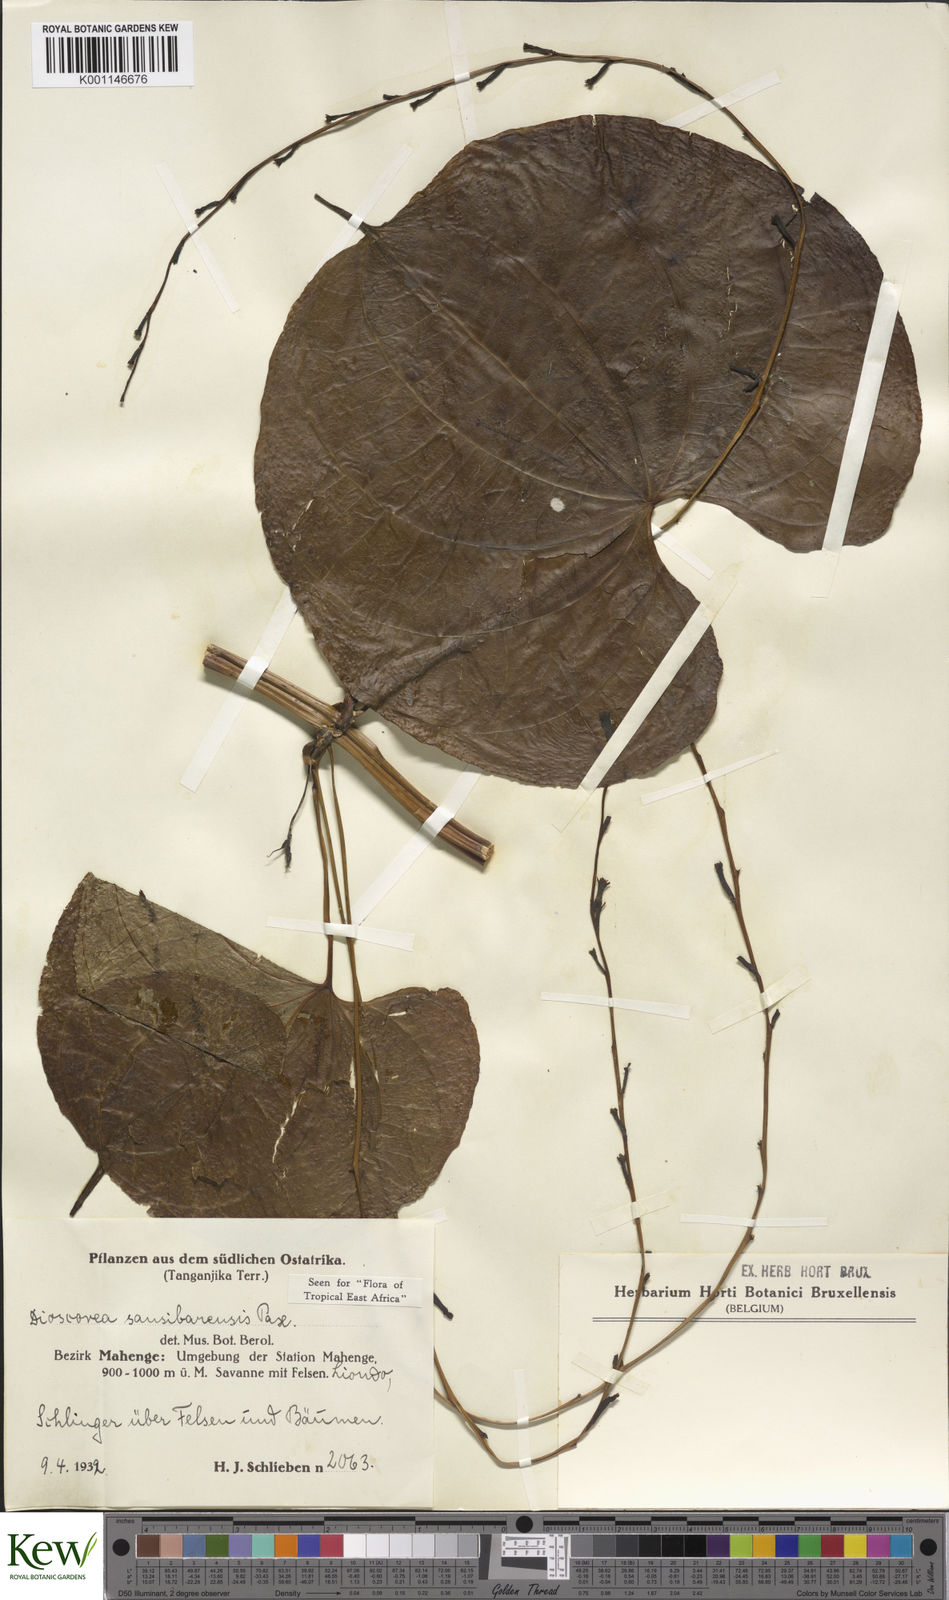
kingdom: Plantae
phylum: Tracheophyta
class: Liliopsida
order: Dioscoreales
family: Dioscoreaceae
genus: Dioscorea
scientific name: Dioscorea sansibarensis
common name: Zanzibar yam
